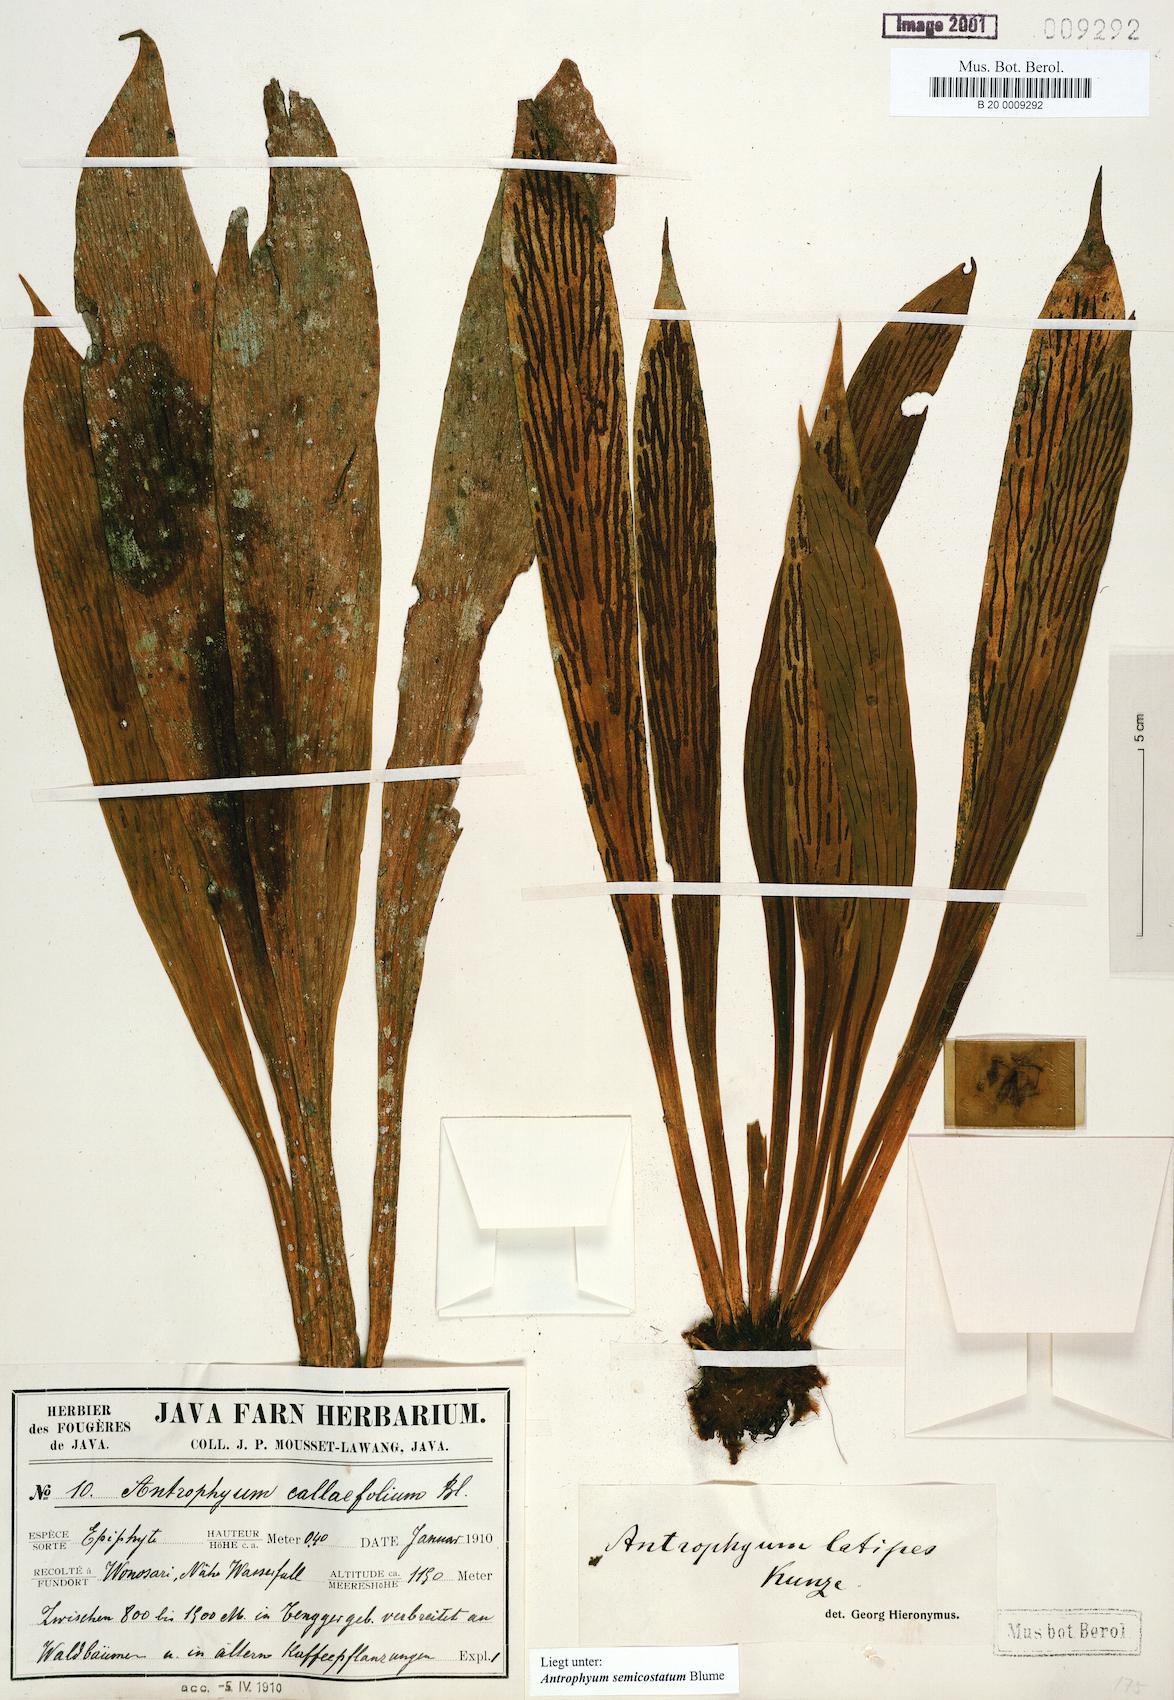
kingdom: Plantae
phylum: Tracheophyta
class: Polypodiopsida
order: Polypodiales
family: Pteridaceae
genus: Antrophyum
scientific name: Antrophyum semicostatum
